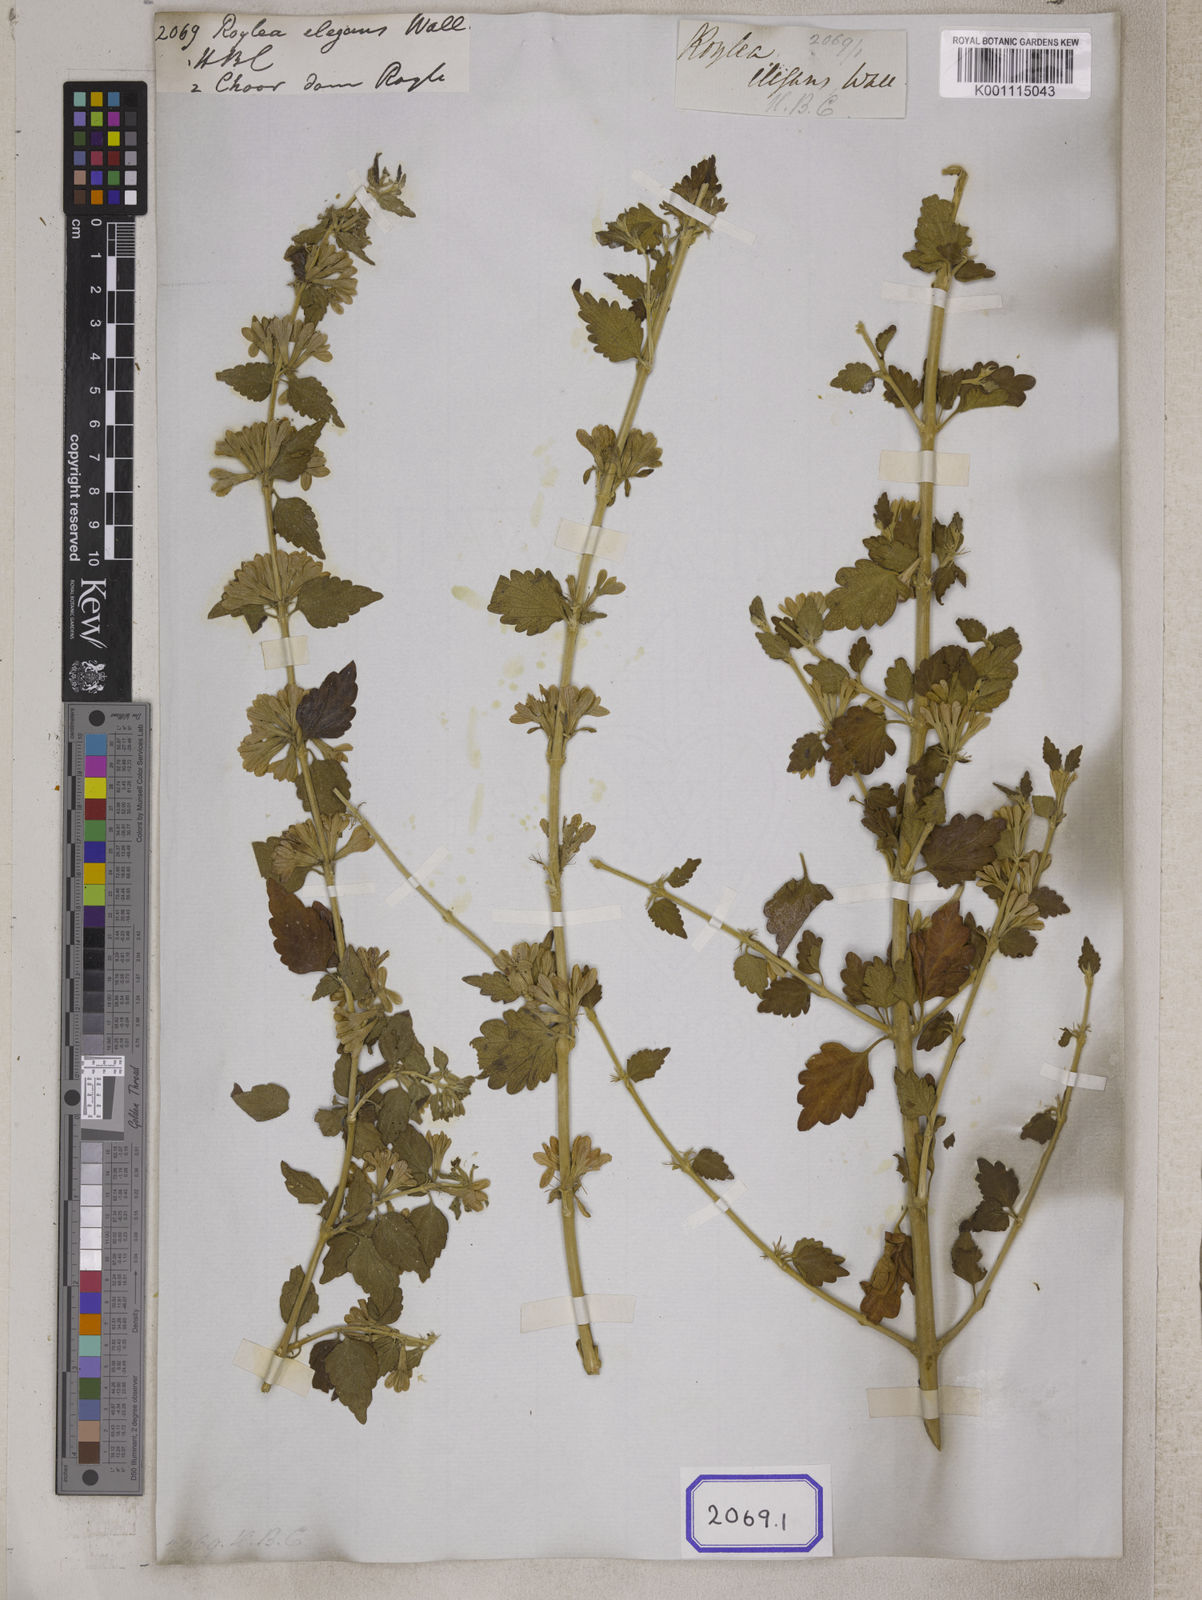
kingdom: Plantae
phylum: Tracheophyta
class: Magnoliopsida
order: Lamiales
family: Lamiaceae
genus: Roylea
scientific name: Roylea
